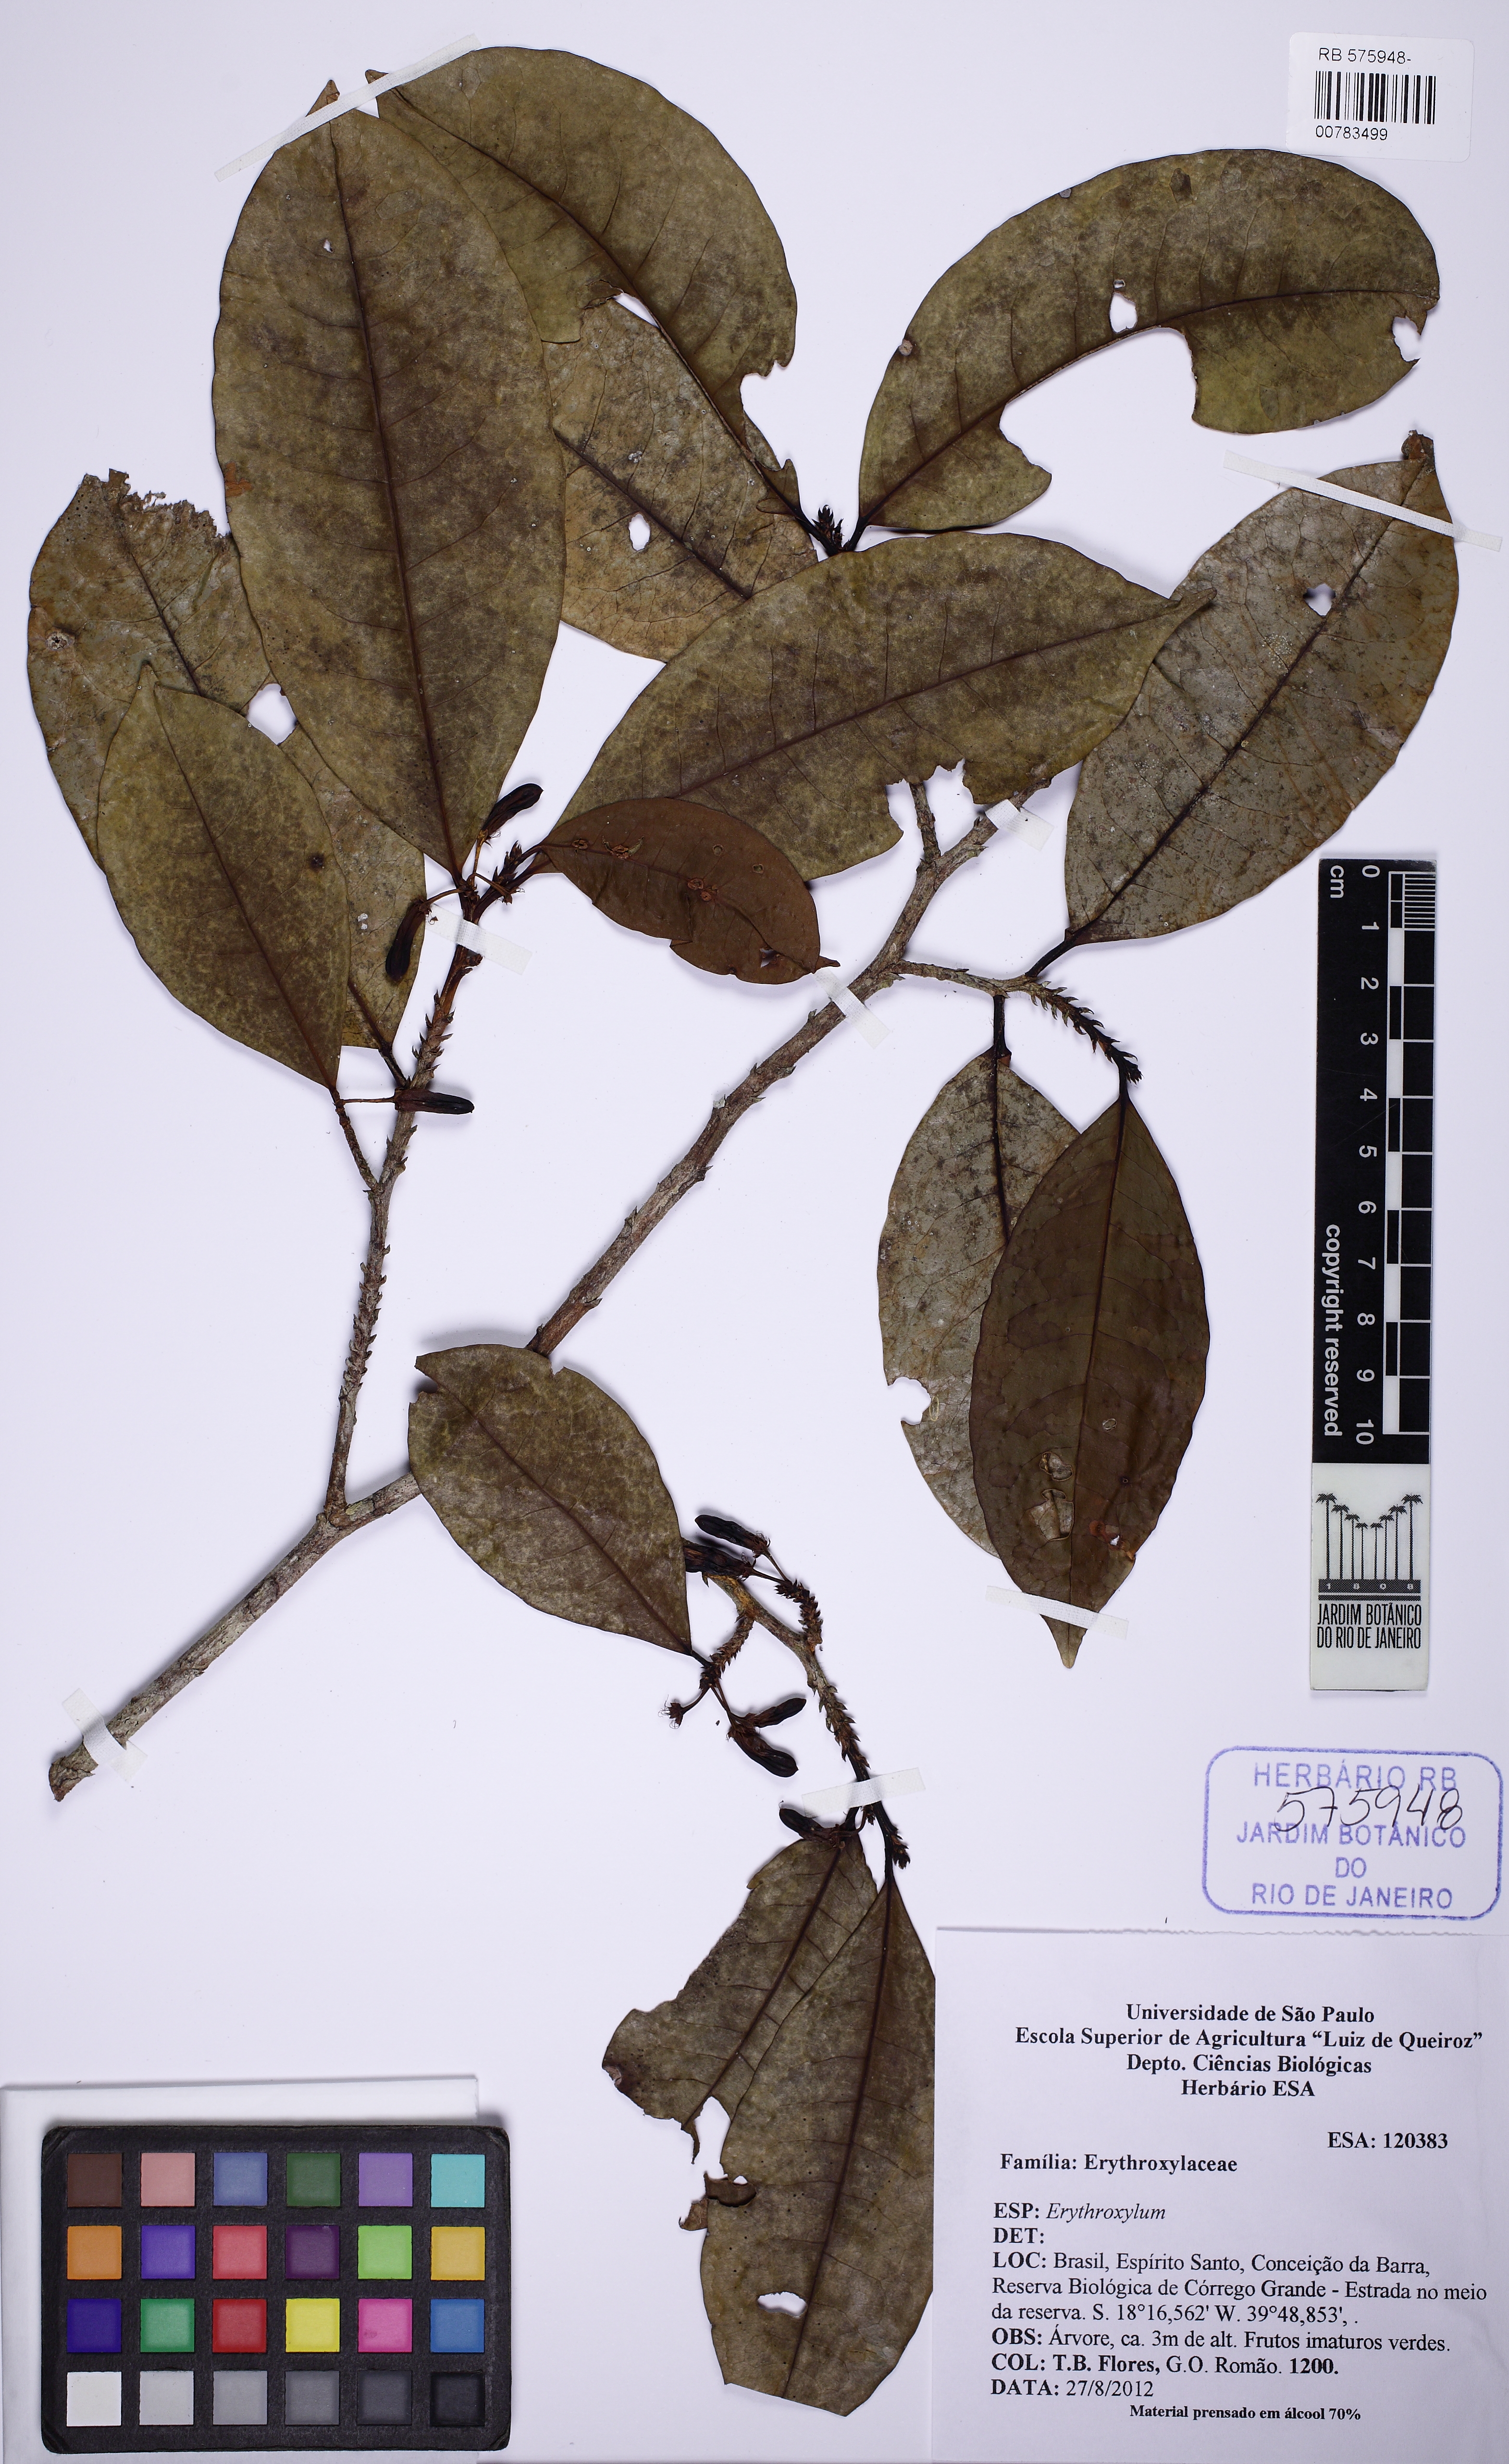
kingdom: Plantae
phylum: Tracheophyta
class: Magnoliopsida
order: Malpighiales
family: Erythroxylaceae
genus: Erythroxylum
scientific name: Erythroxylum squamatum
